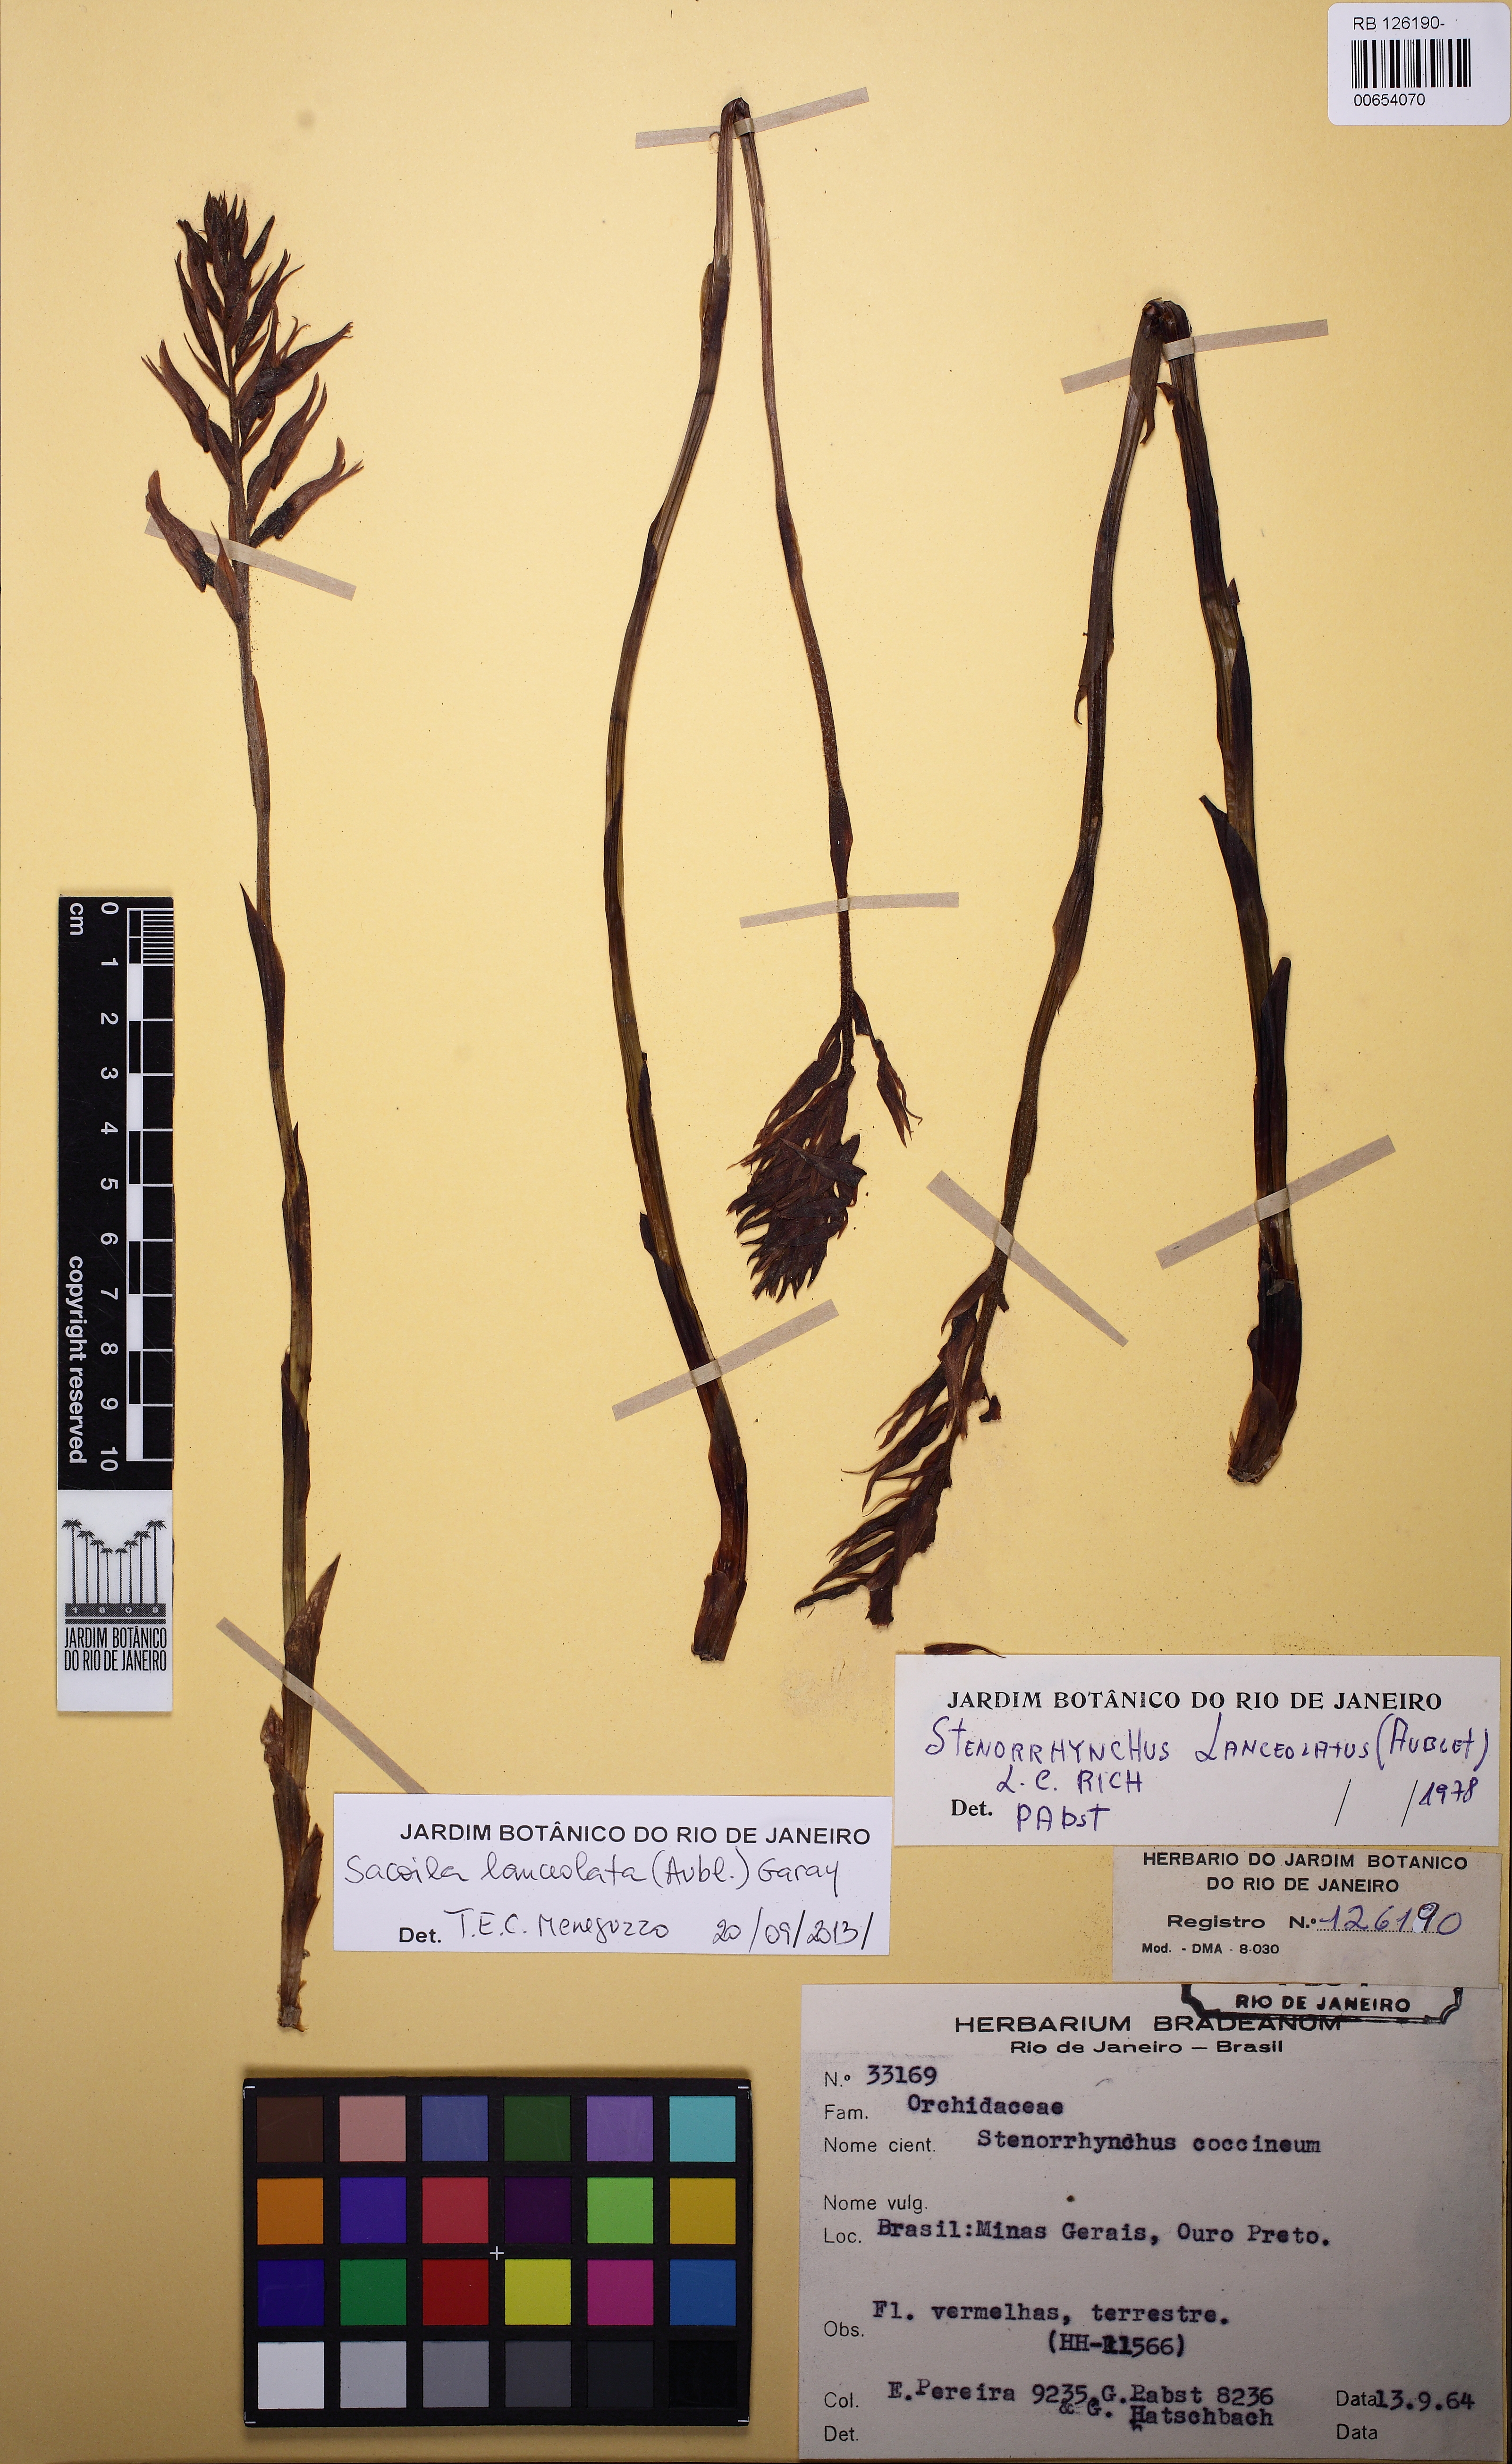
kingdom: Plantae
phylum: Tracheophyta
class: Liliopsida
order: Asparagales
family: Orchidaceae
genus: Sacoila
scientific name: Sacoila lanceolata
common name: Leafless beaked ladiestresses
